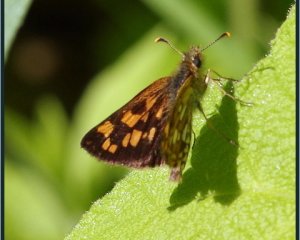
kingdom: Animalia
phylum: Arthropoda
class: Insecta
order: Lepidoptera
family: Hesperiidae
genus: Carterocephalus
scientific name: Carterocephalus palaemon
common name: Chequered Skipper
